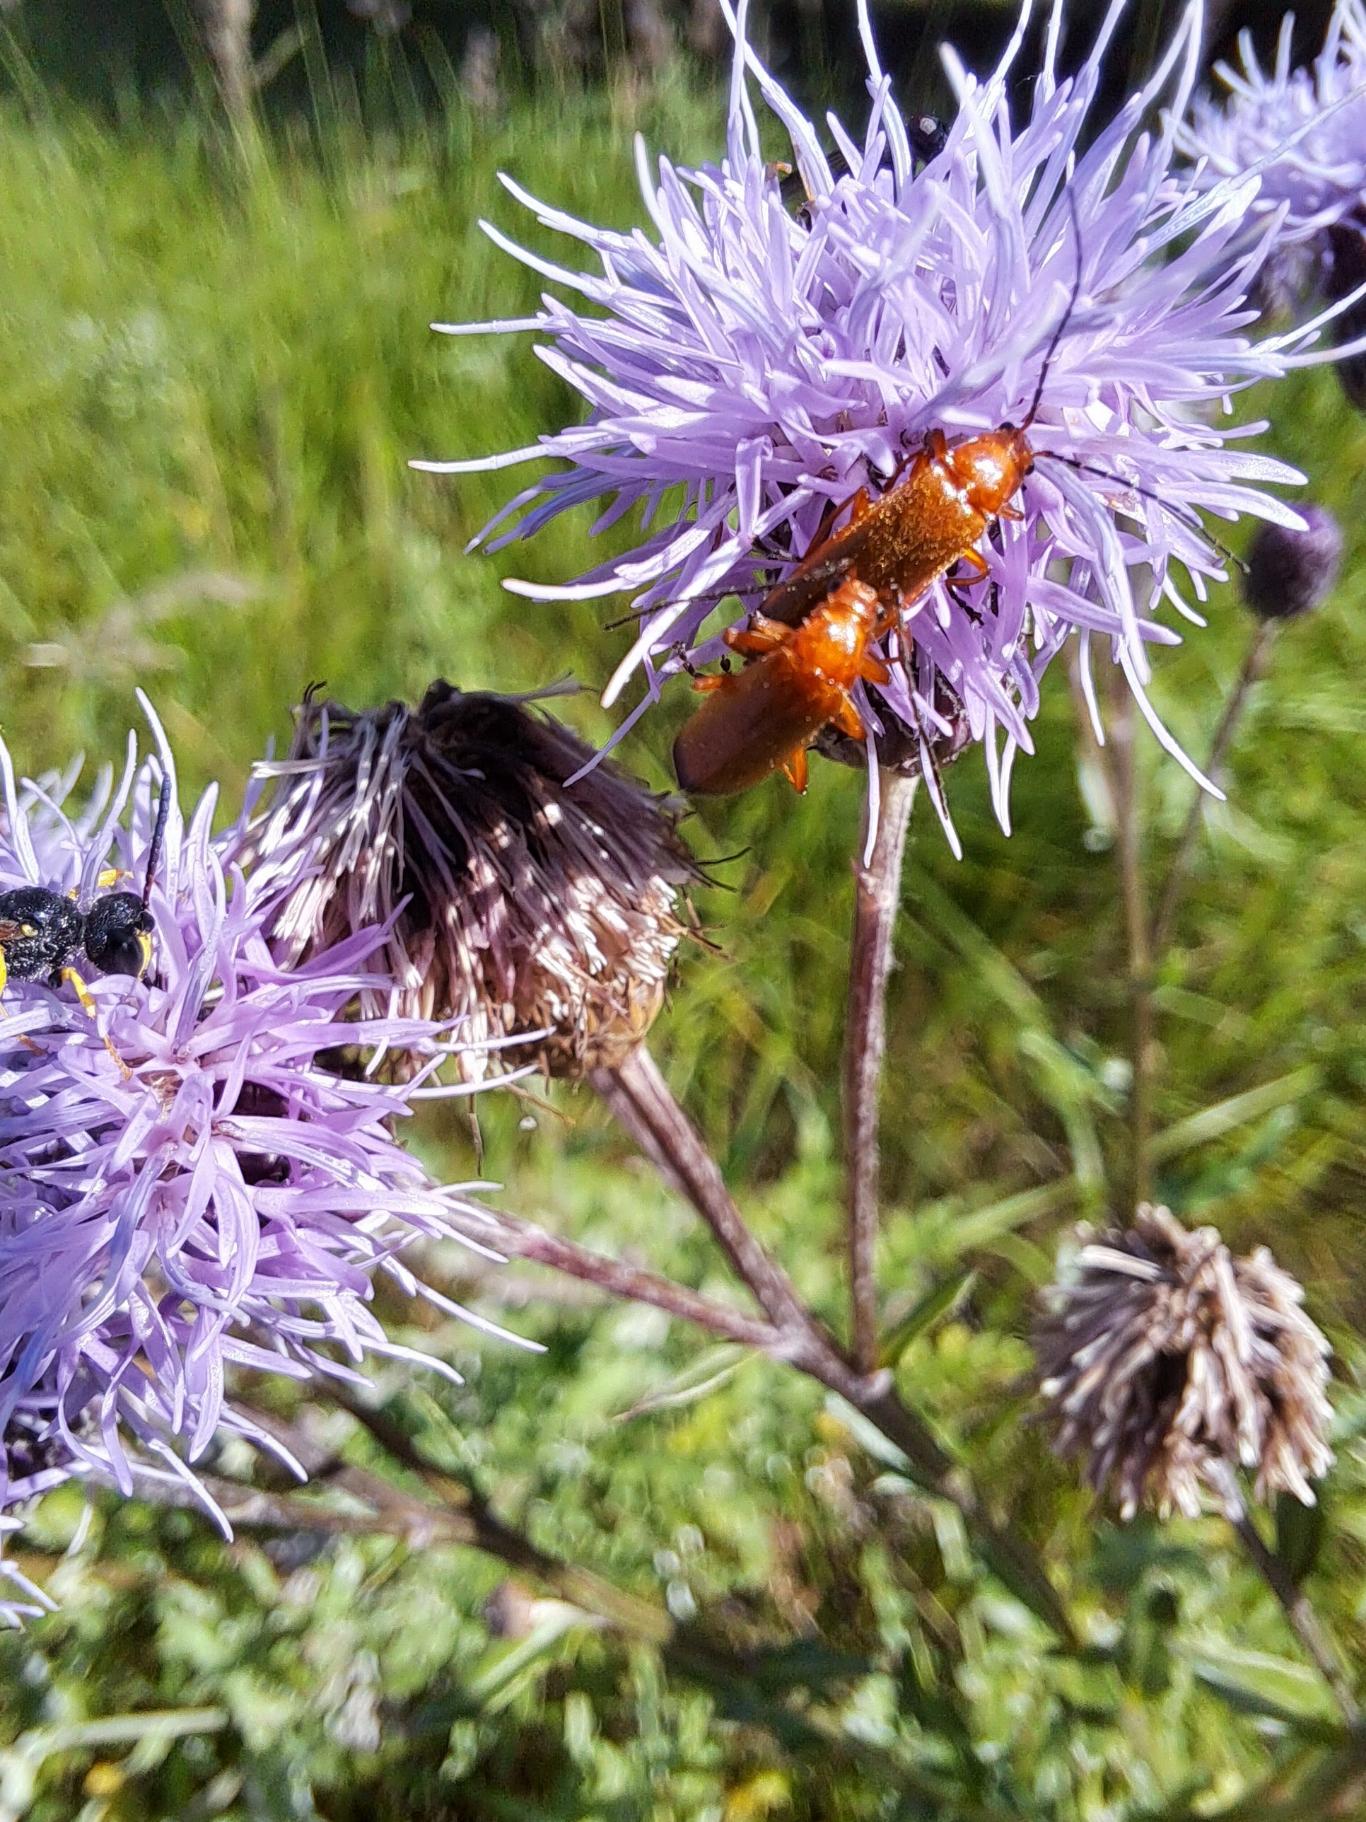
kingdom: Animalia
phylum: Arthropoda
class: Insecta
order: Coleoptera
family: Cantharidae
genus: Rhagonycha
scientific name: Rhagonycha fulva
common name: Præstebille
